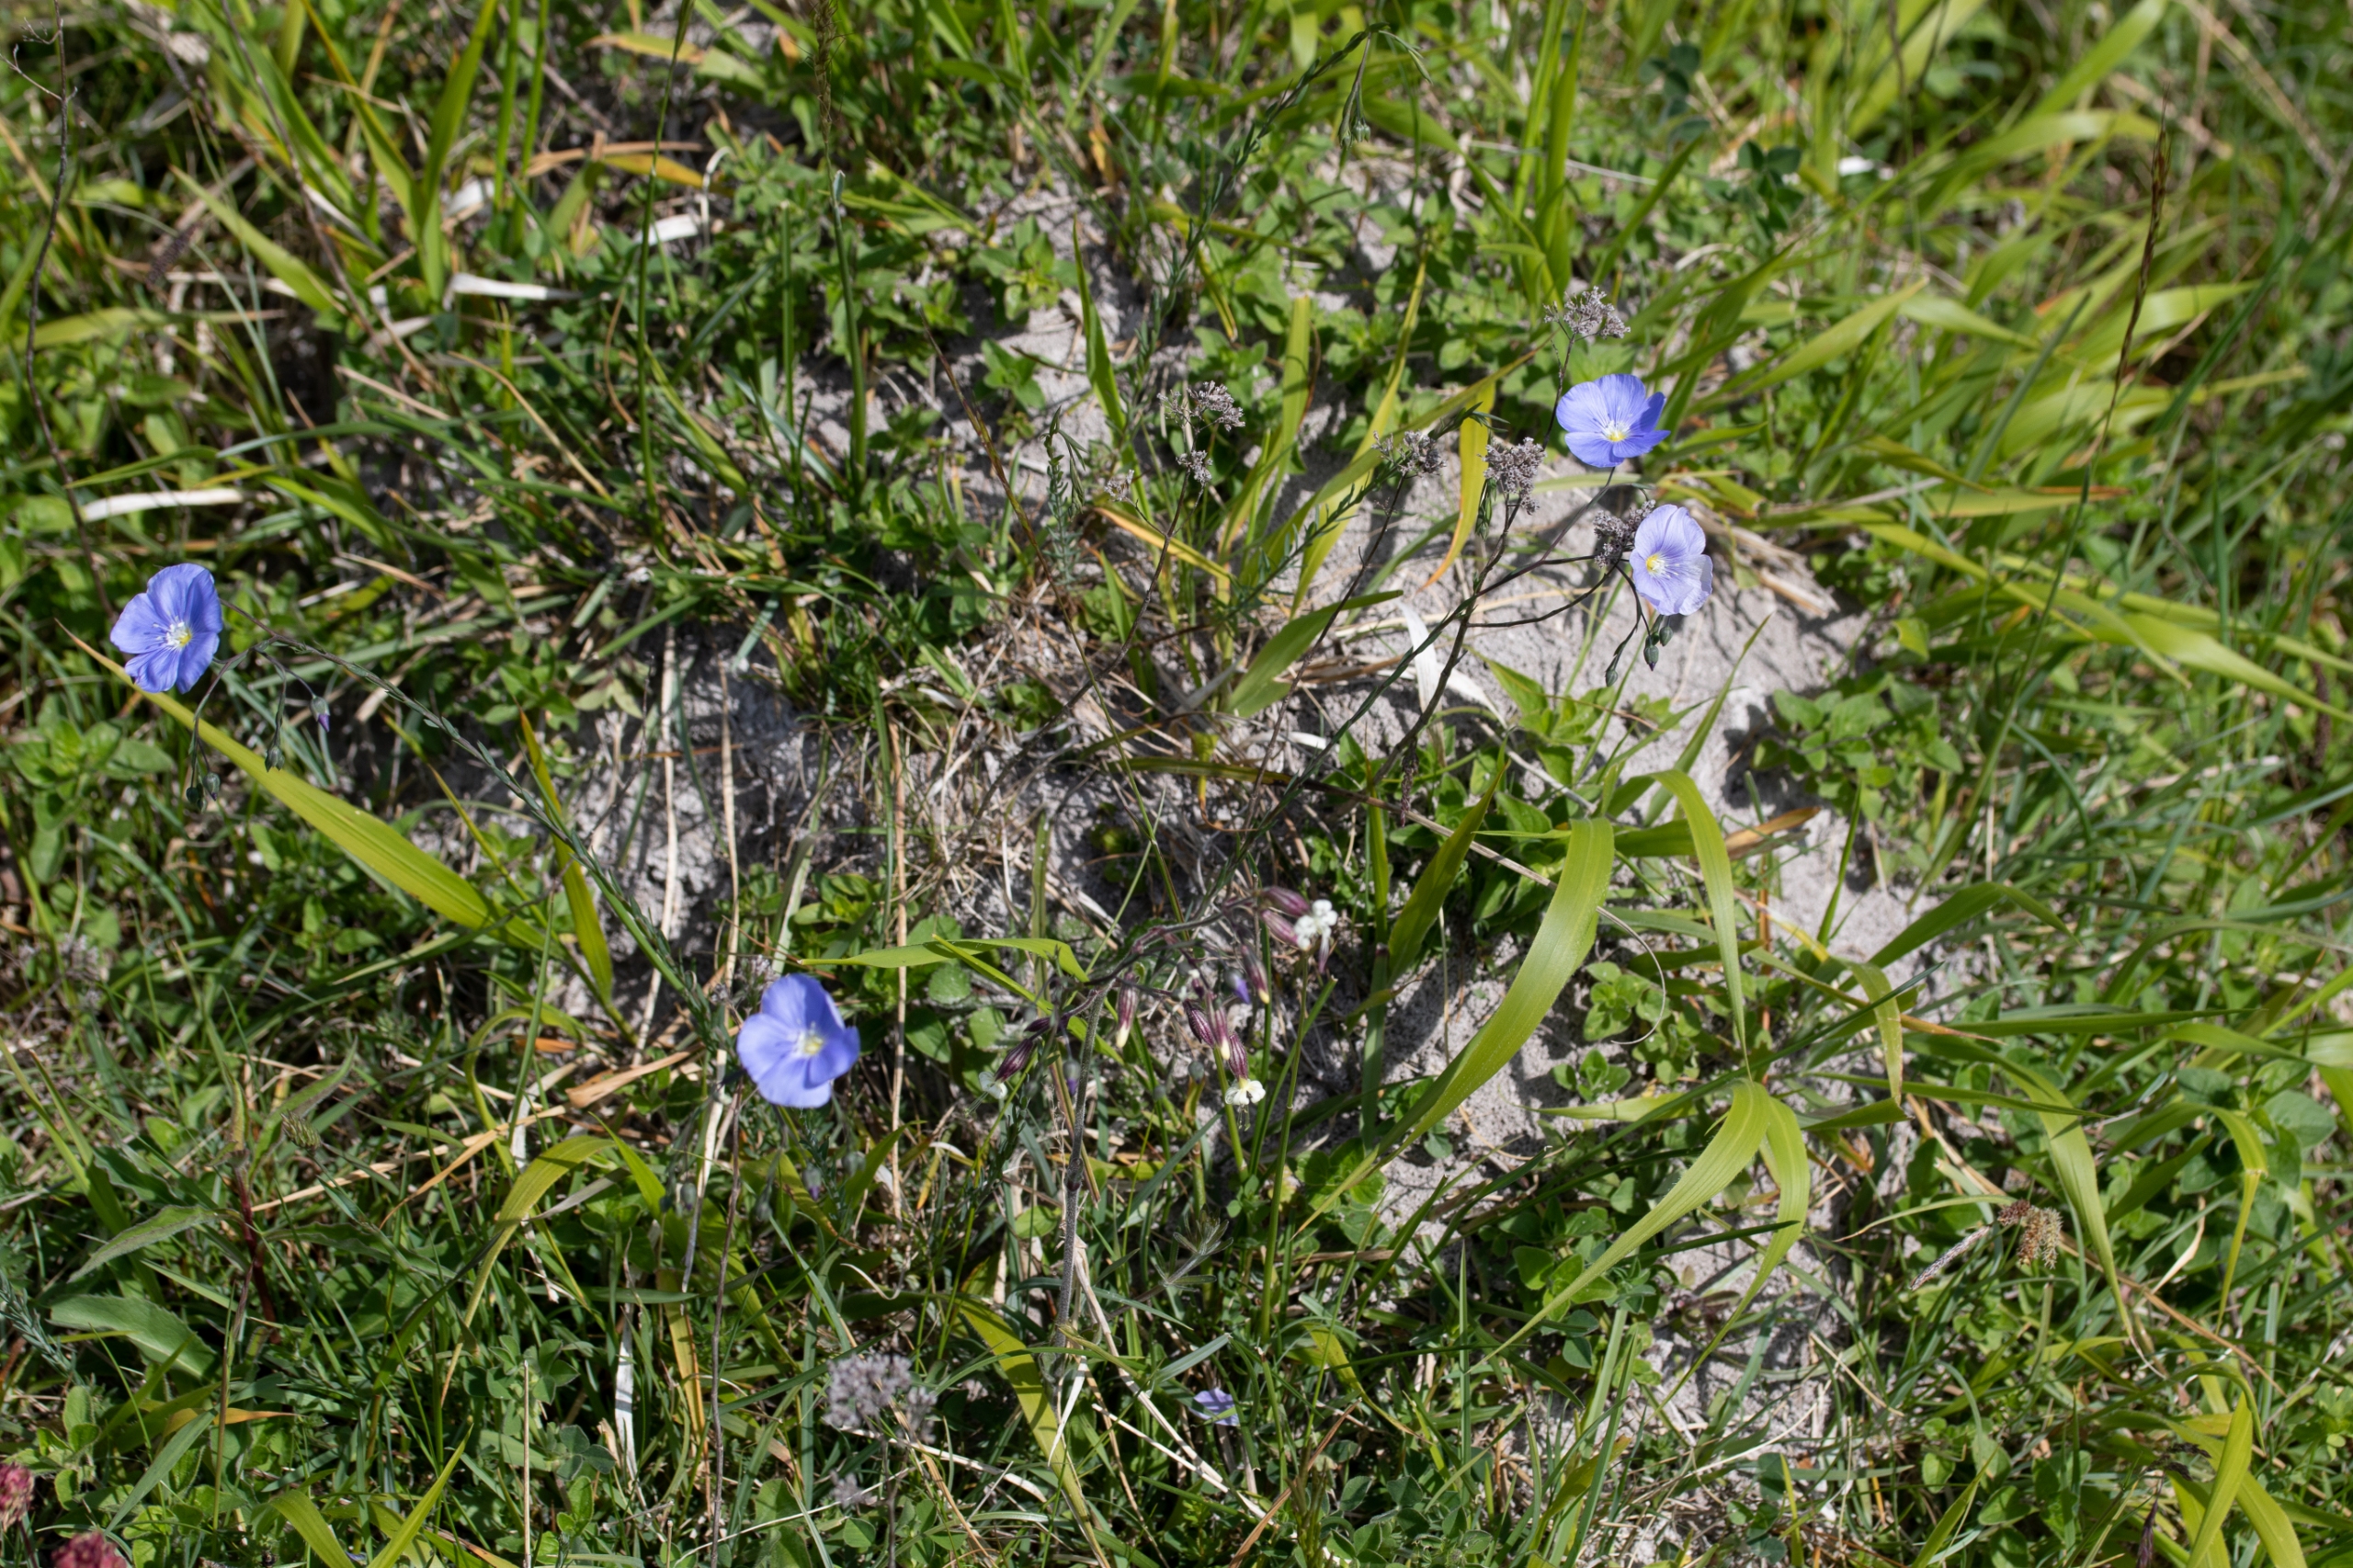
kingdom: Plantae
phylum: Tracheophyta
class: Magnoliopsida
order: Malpighiales
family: Linaceae
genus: Linum
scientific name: Linum austriacum
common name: Østrigsk hør
